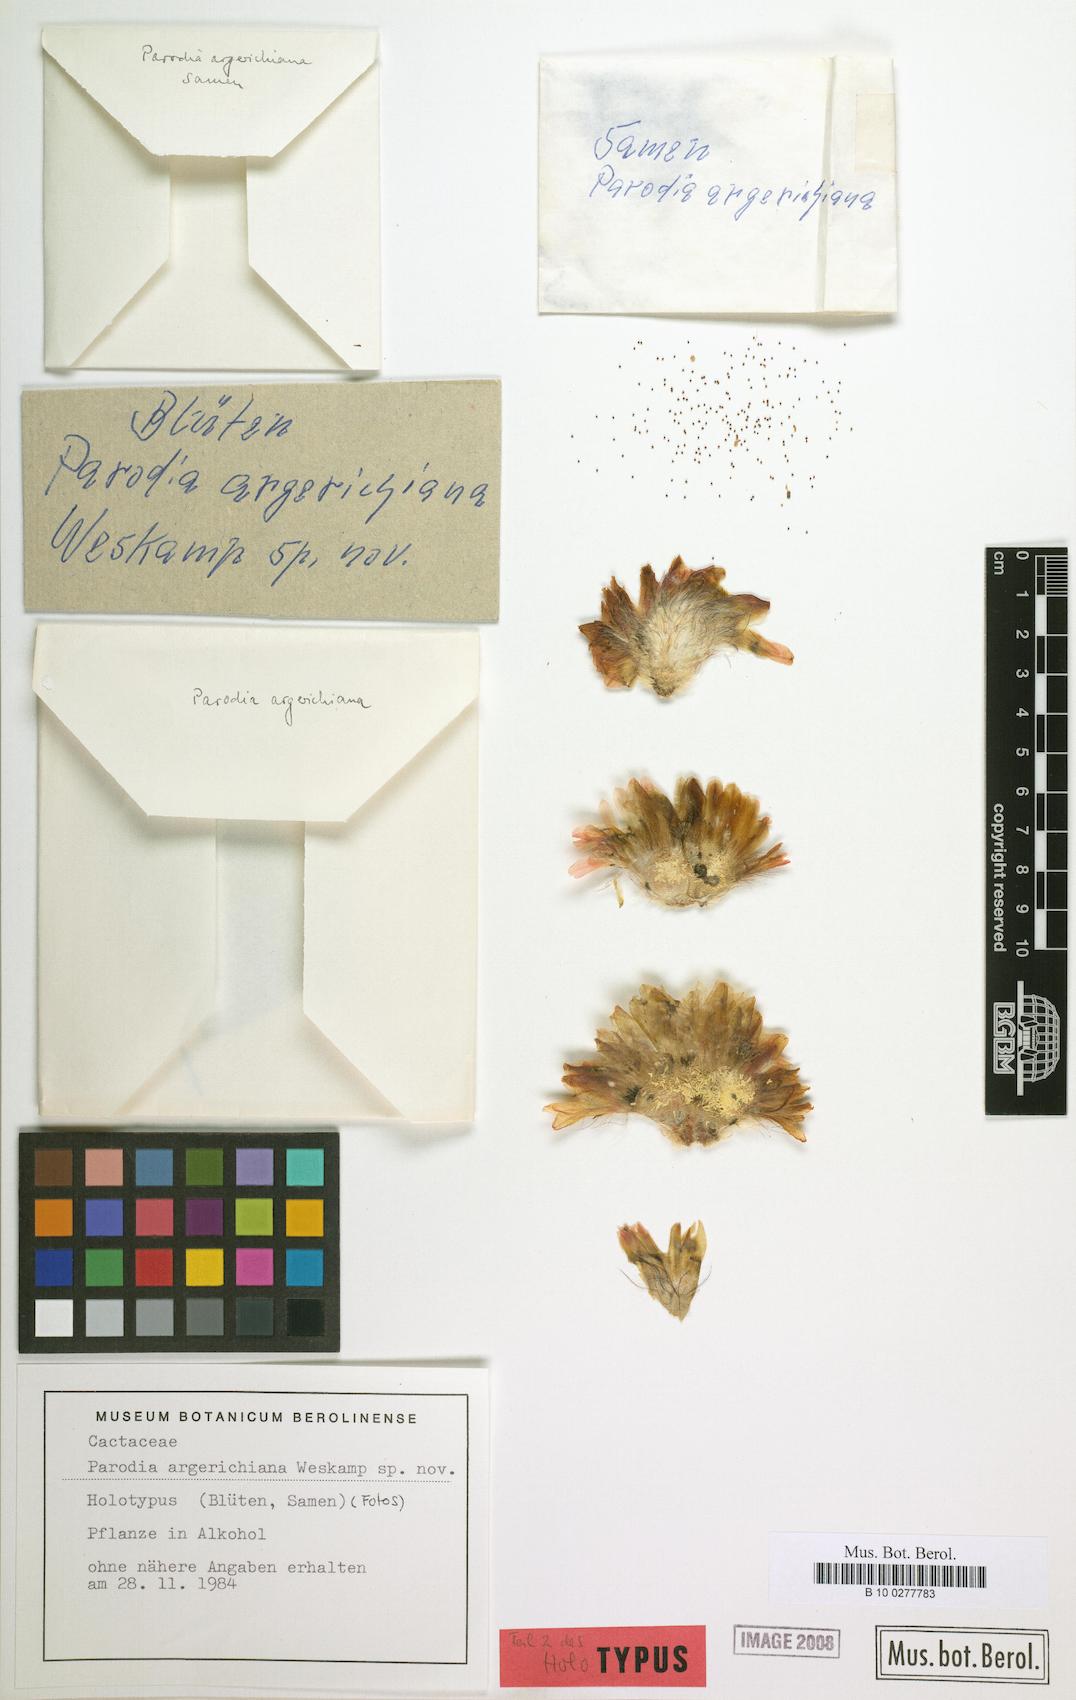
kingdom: Plantae
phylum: Tracheophyta
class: Magnoliopsida
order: Caryophyllales
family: Cactaceae
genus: Parodia
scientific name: Parodia microsperma
